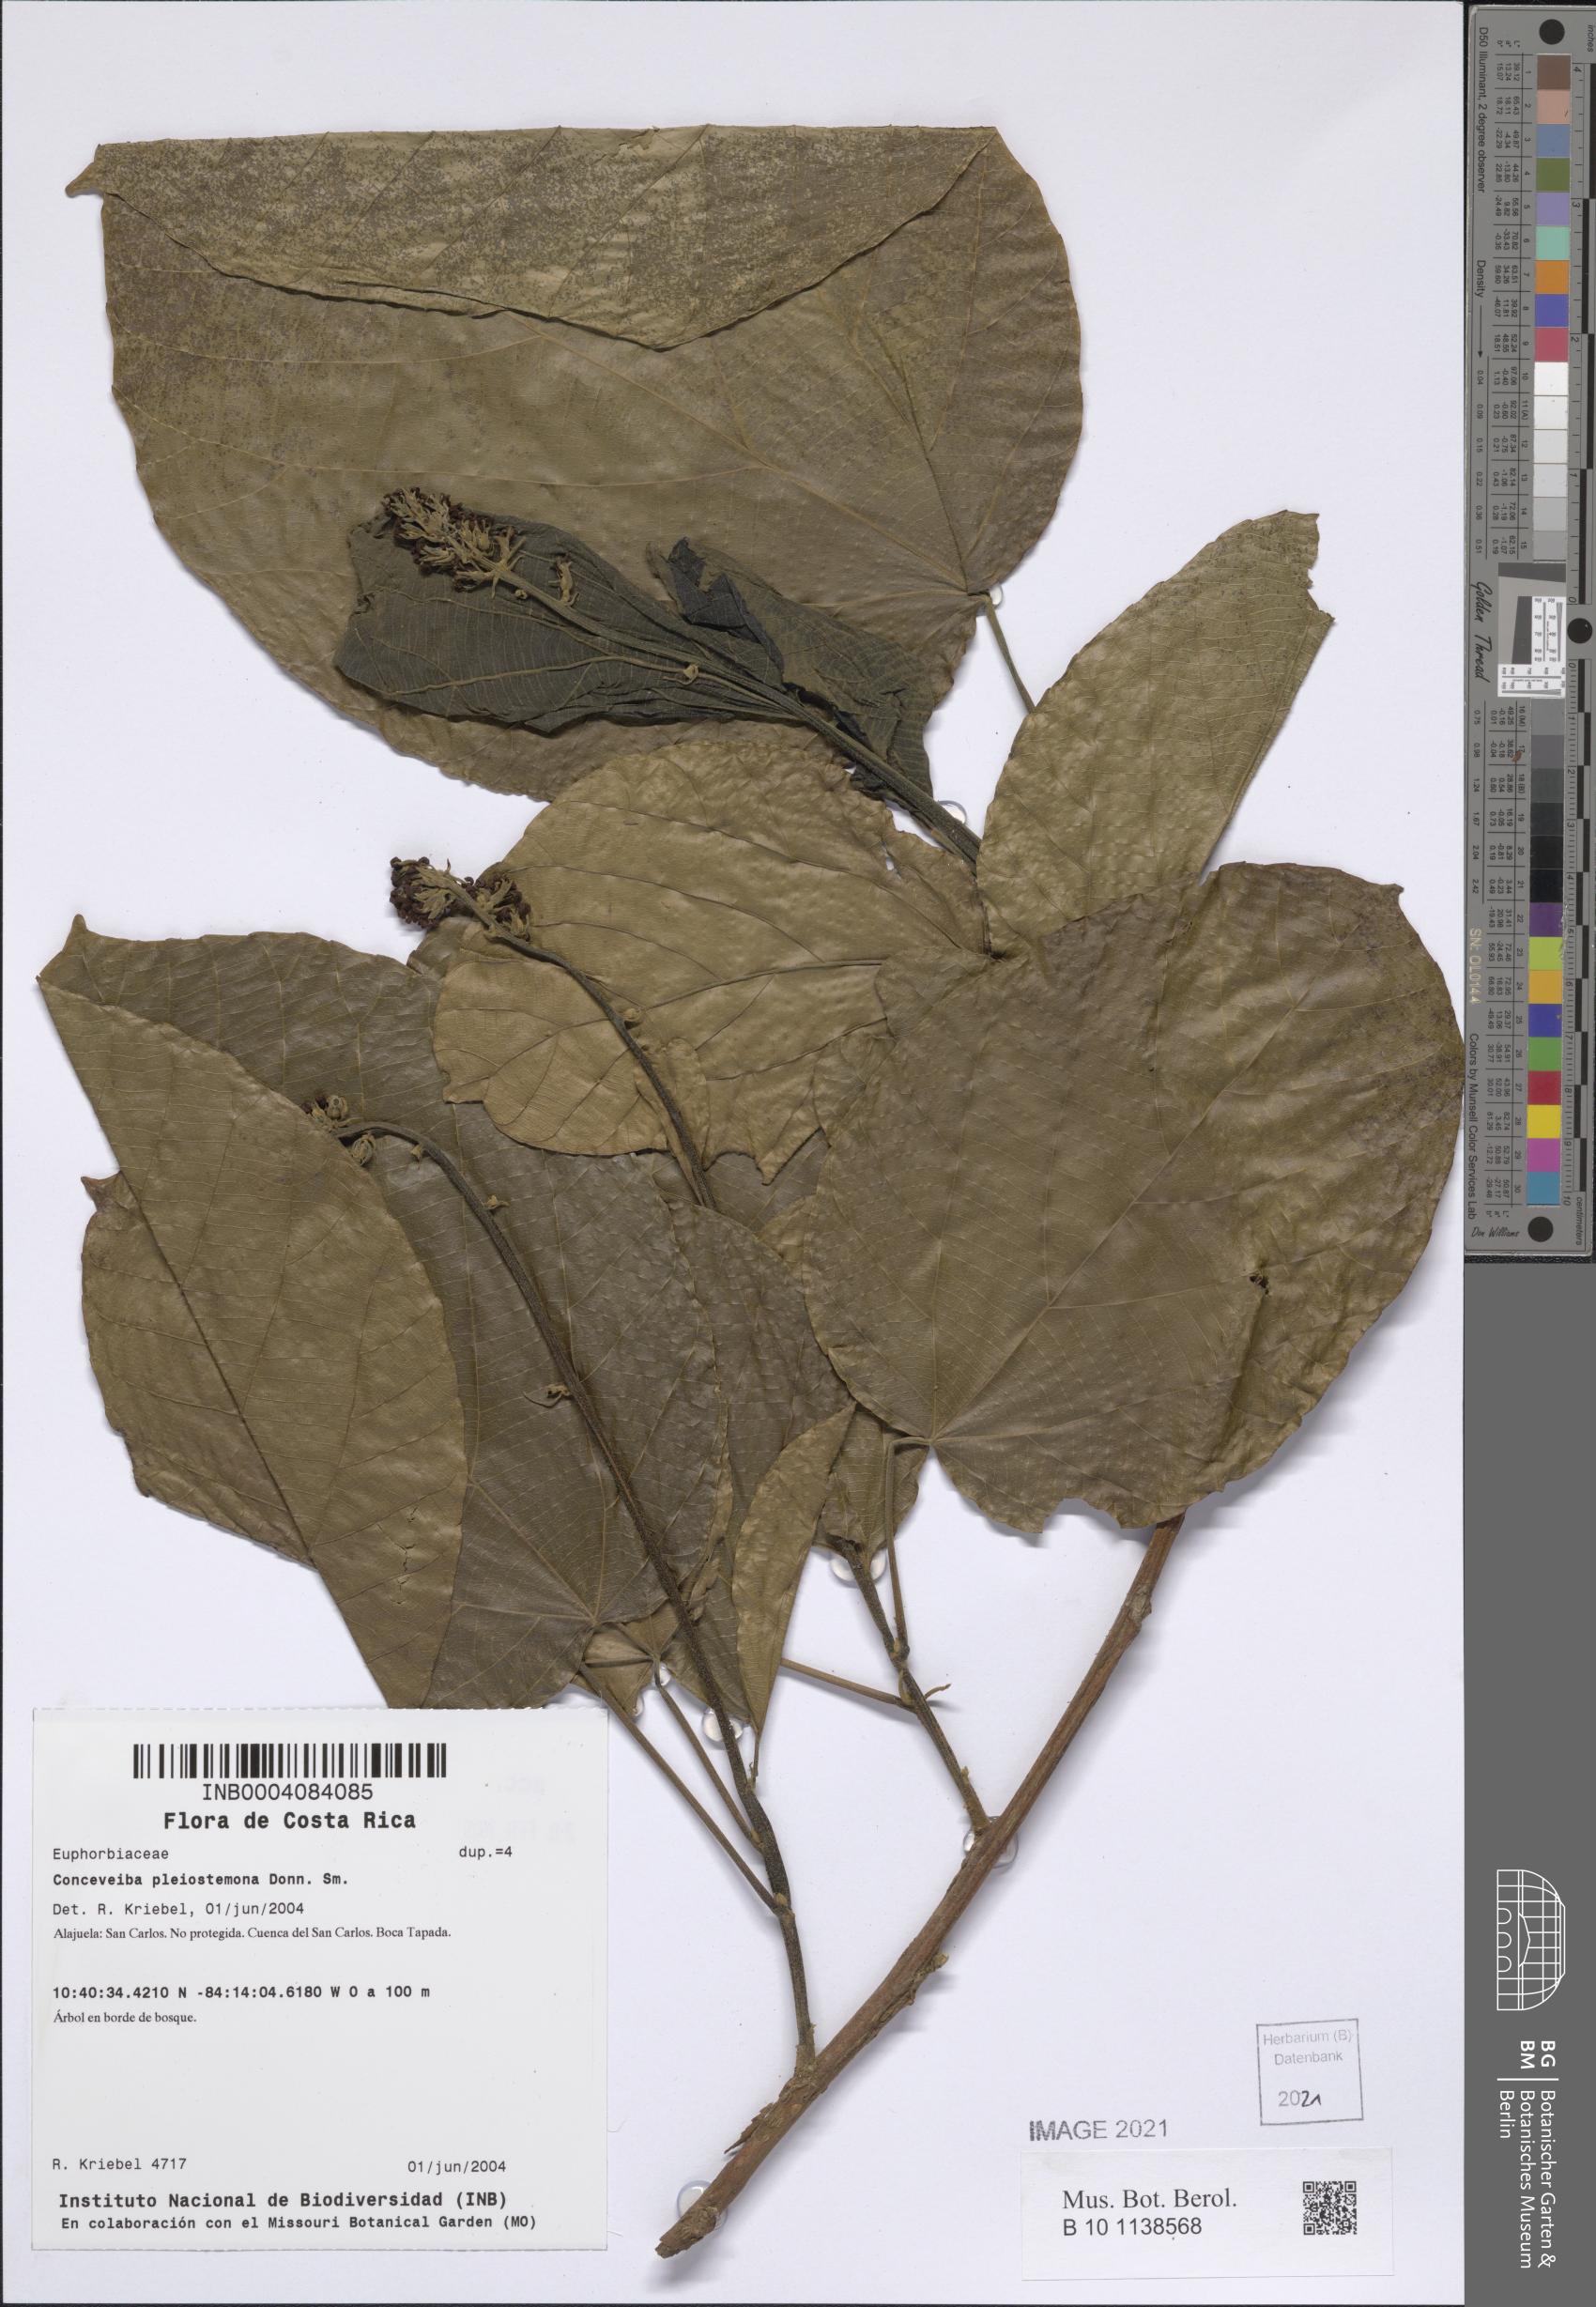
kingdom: Plantae
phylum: Tracheophyta
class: Magnoliopsida
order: Malpighiales
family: Euphorbiaceae
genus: Conceveiba
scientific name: Conceveiba pleiostemona
